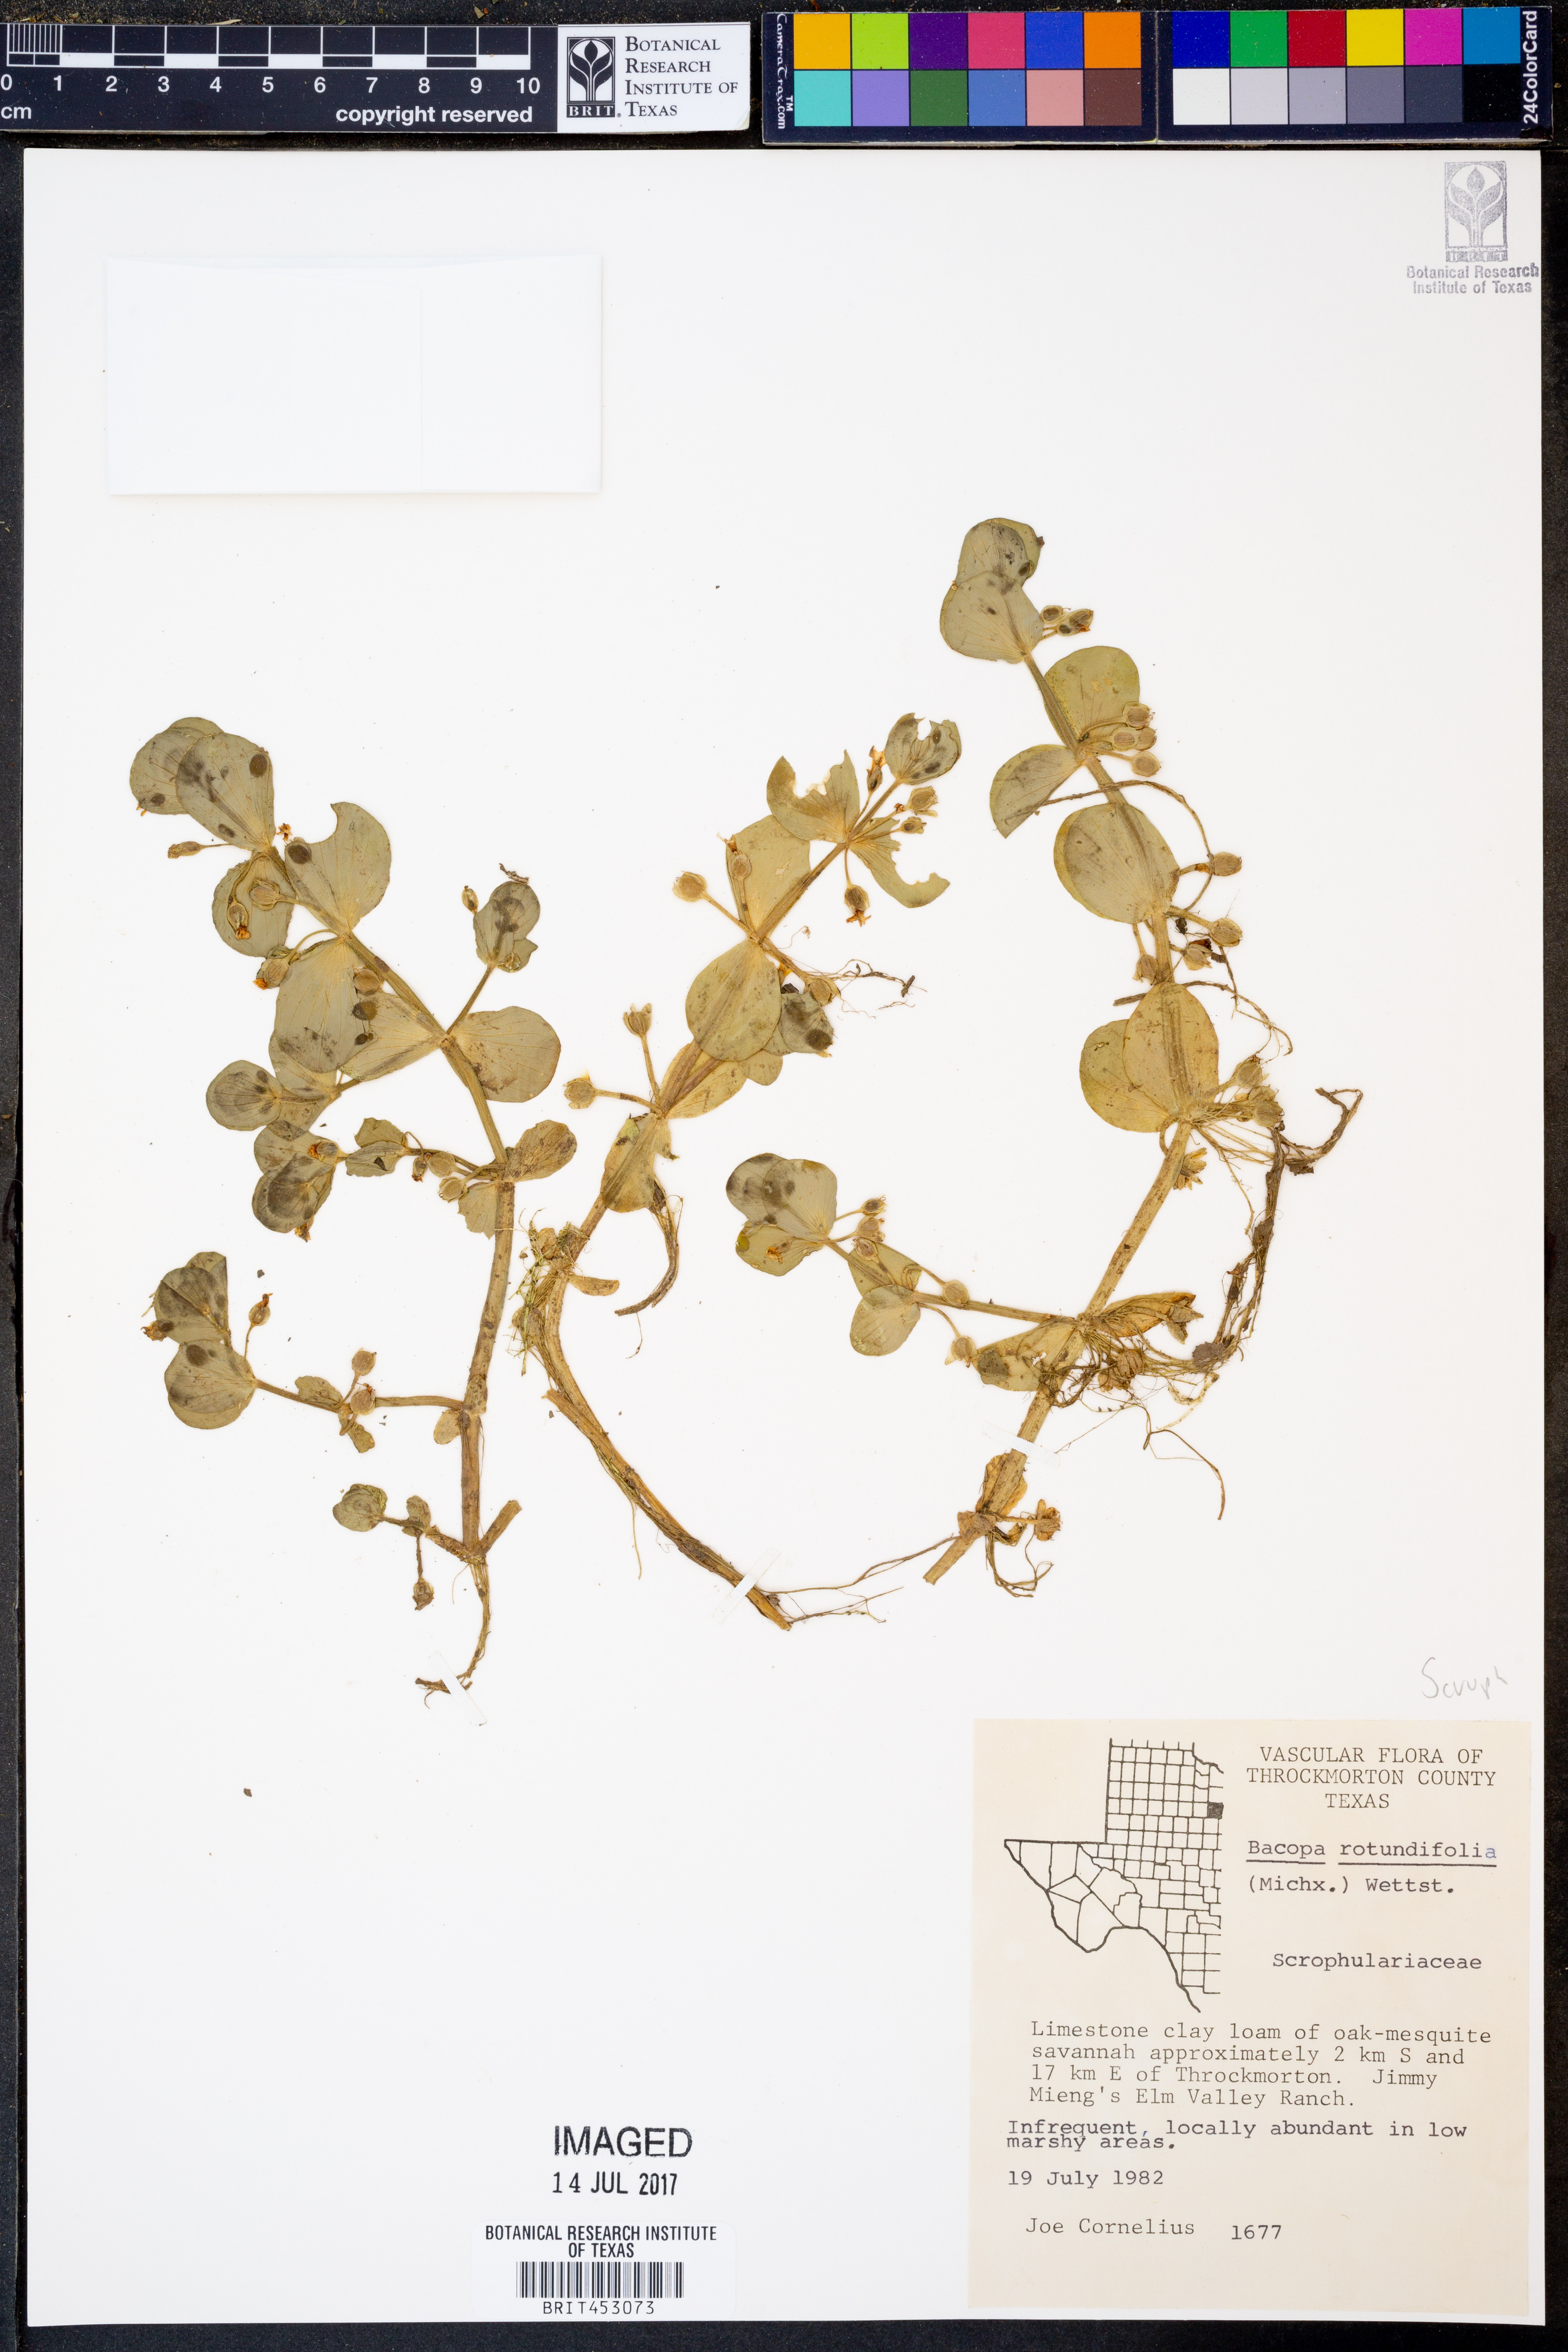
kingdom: Plantae
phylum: Tracheophyta
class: Magnoliopsida
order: Lamiales
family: Plantaginaceae
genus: Bacopa
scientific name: Bacopa rotundifolia
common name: Disc water hyssop
